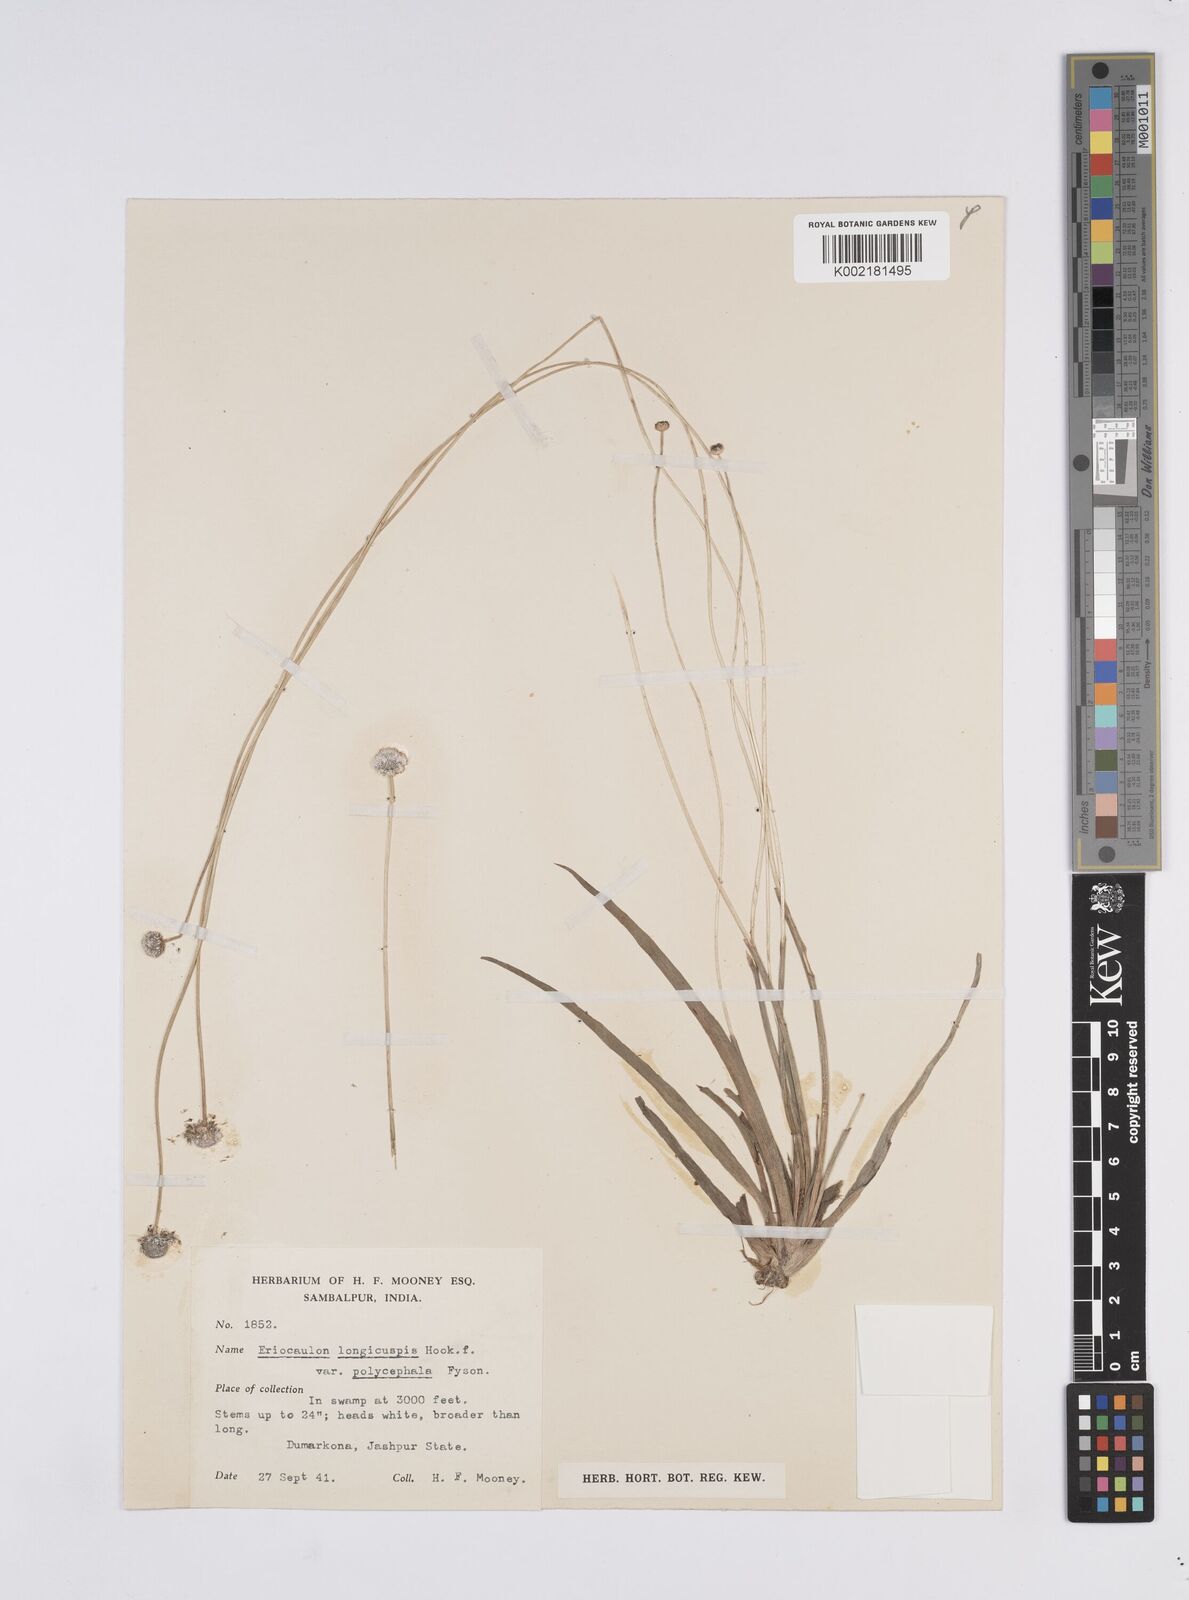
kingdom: Plantae
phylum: Tracheophyta
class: Liliopsida
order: Poales
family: Eriocaulaceae
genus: Eriocaulon
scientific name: Eriocaulon longicuspe
